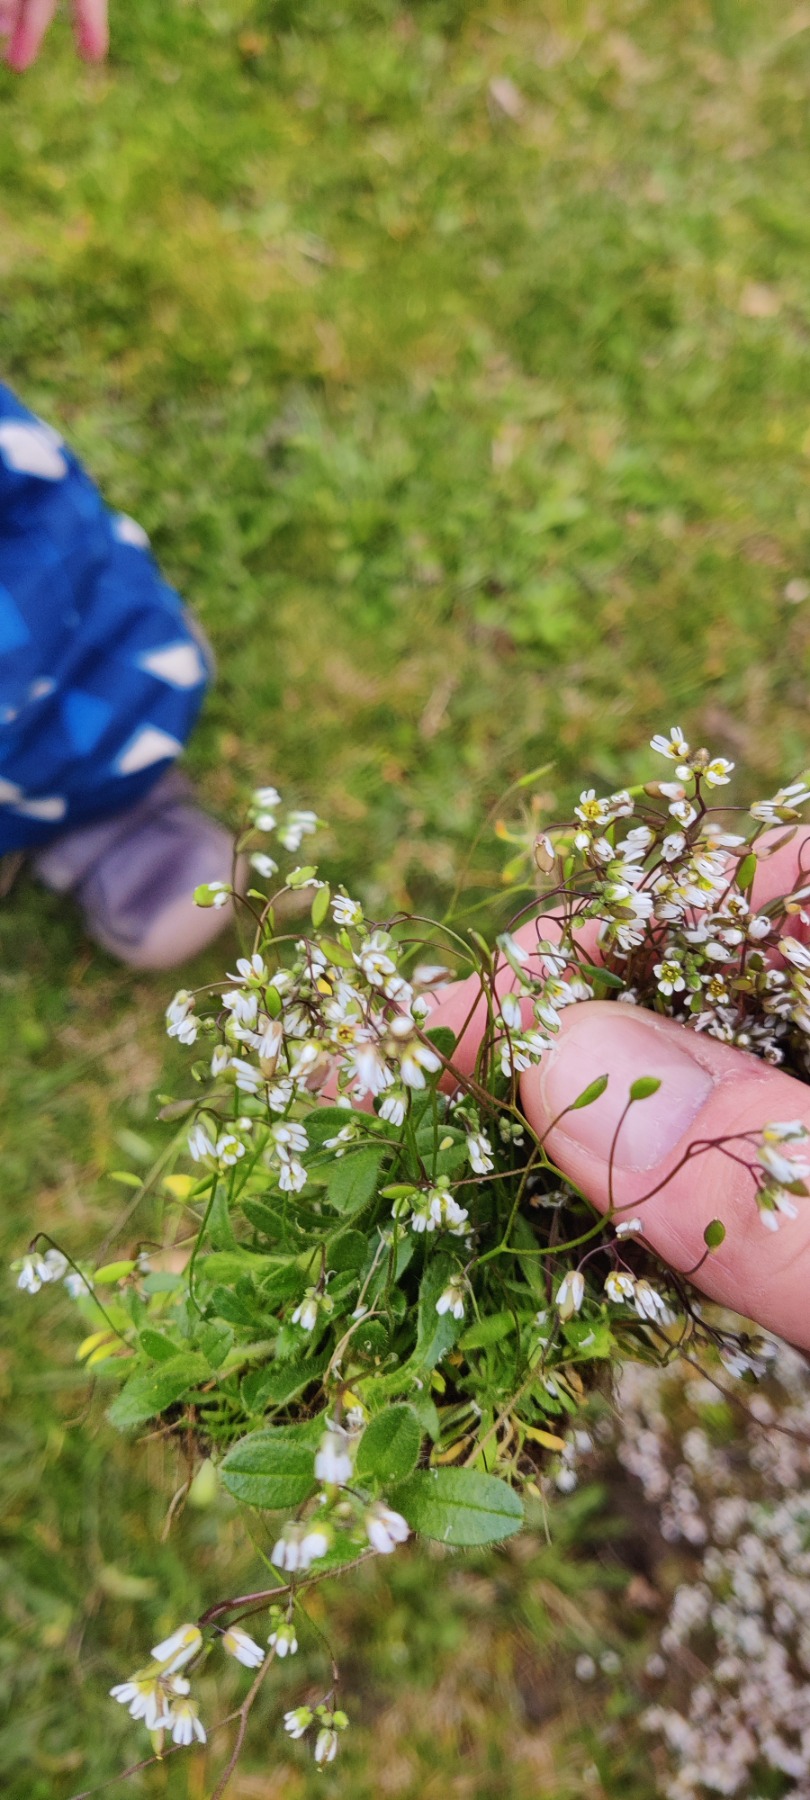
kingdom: Plantae
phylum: Tracheophyta
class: Magnoliopsida
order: Brassicales
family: Brassicaceae
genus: Draba
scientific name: Draba verna
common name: Vår-gæslingeblomst
